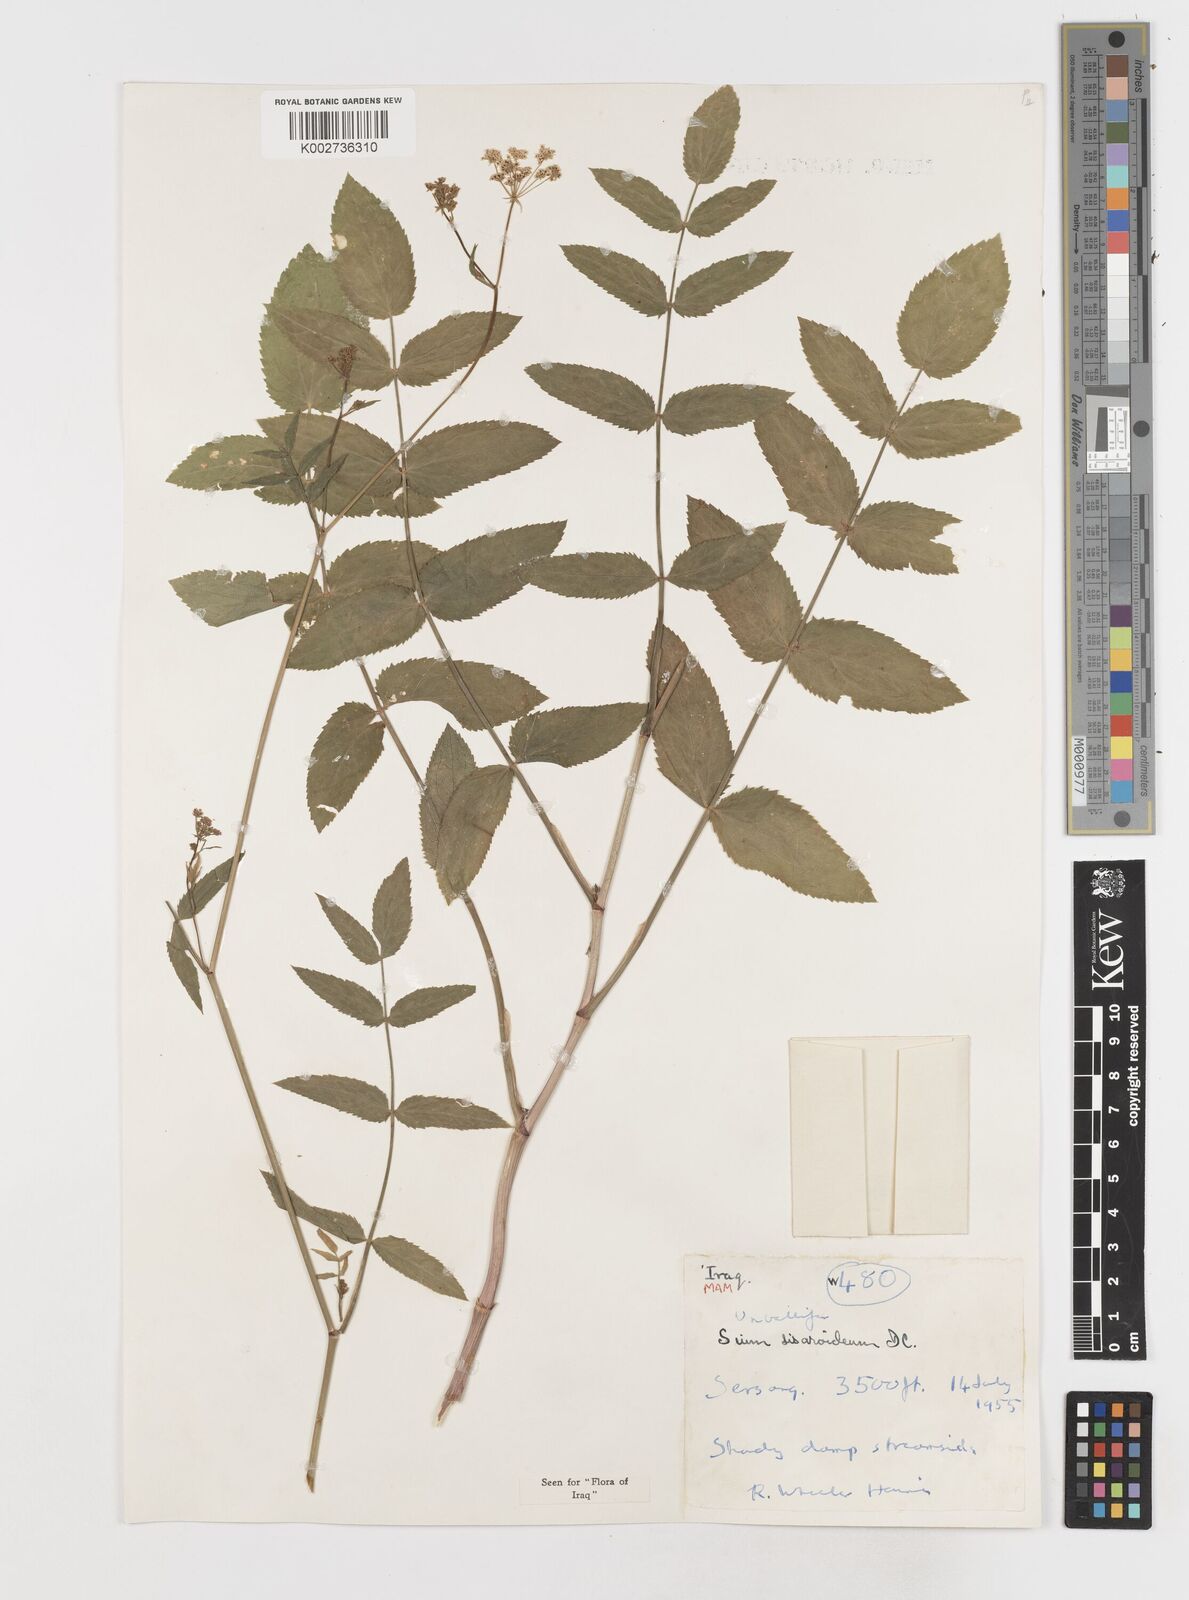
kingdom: Plantae
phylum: Tracheophyta
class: Magnoliopsida
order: Apiales
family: Apiaceae
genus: Sium
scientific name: Sium sisarum
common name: Skirret
